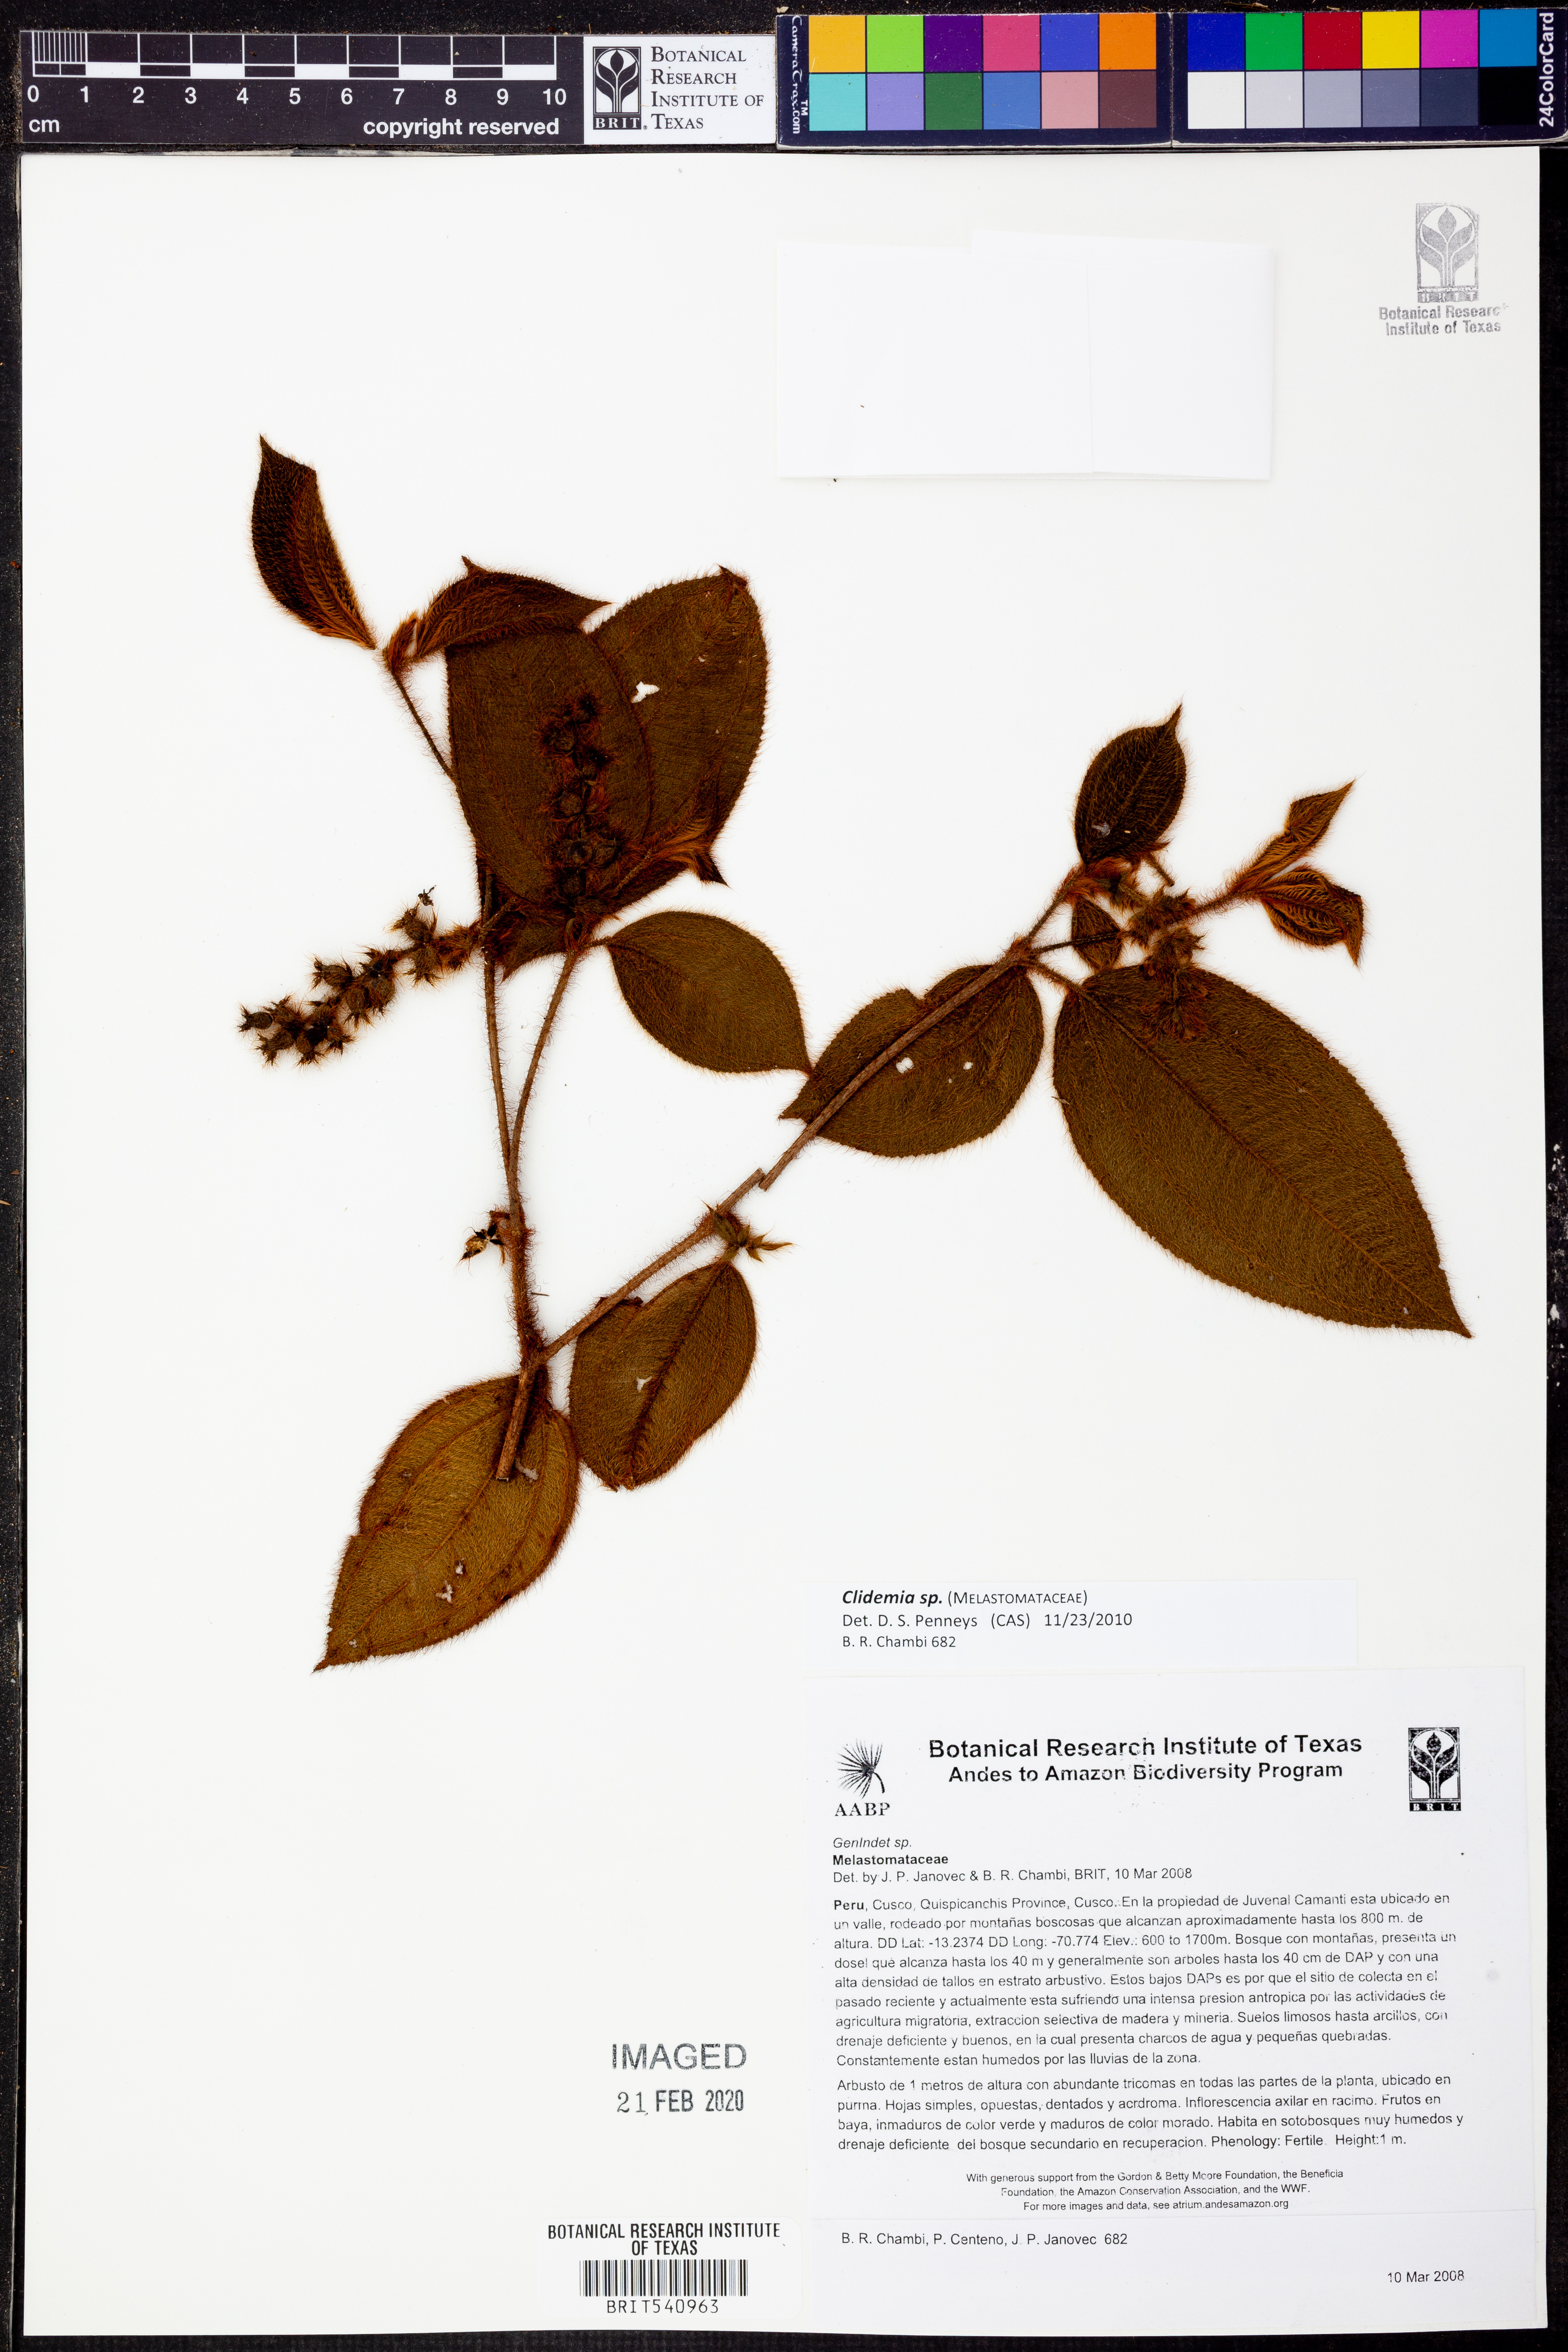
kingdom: Plantae
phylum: Tracheophyta
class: Magnoliopsida
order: Myrtales
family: Melastomataceae
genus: Miconia
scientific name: Miconia
